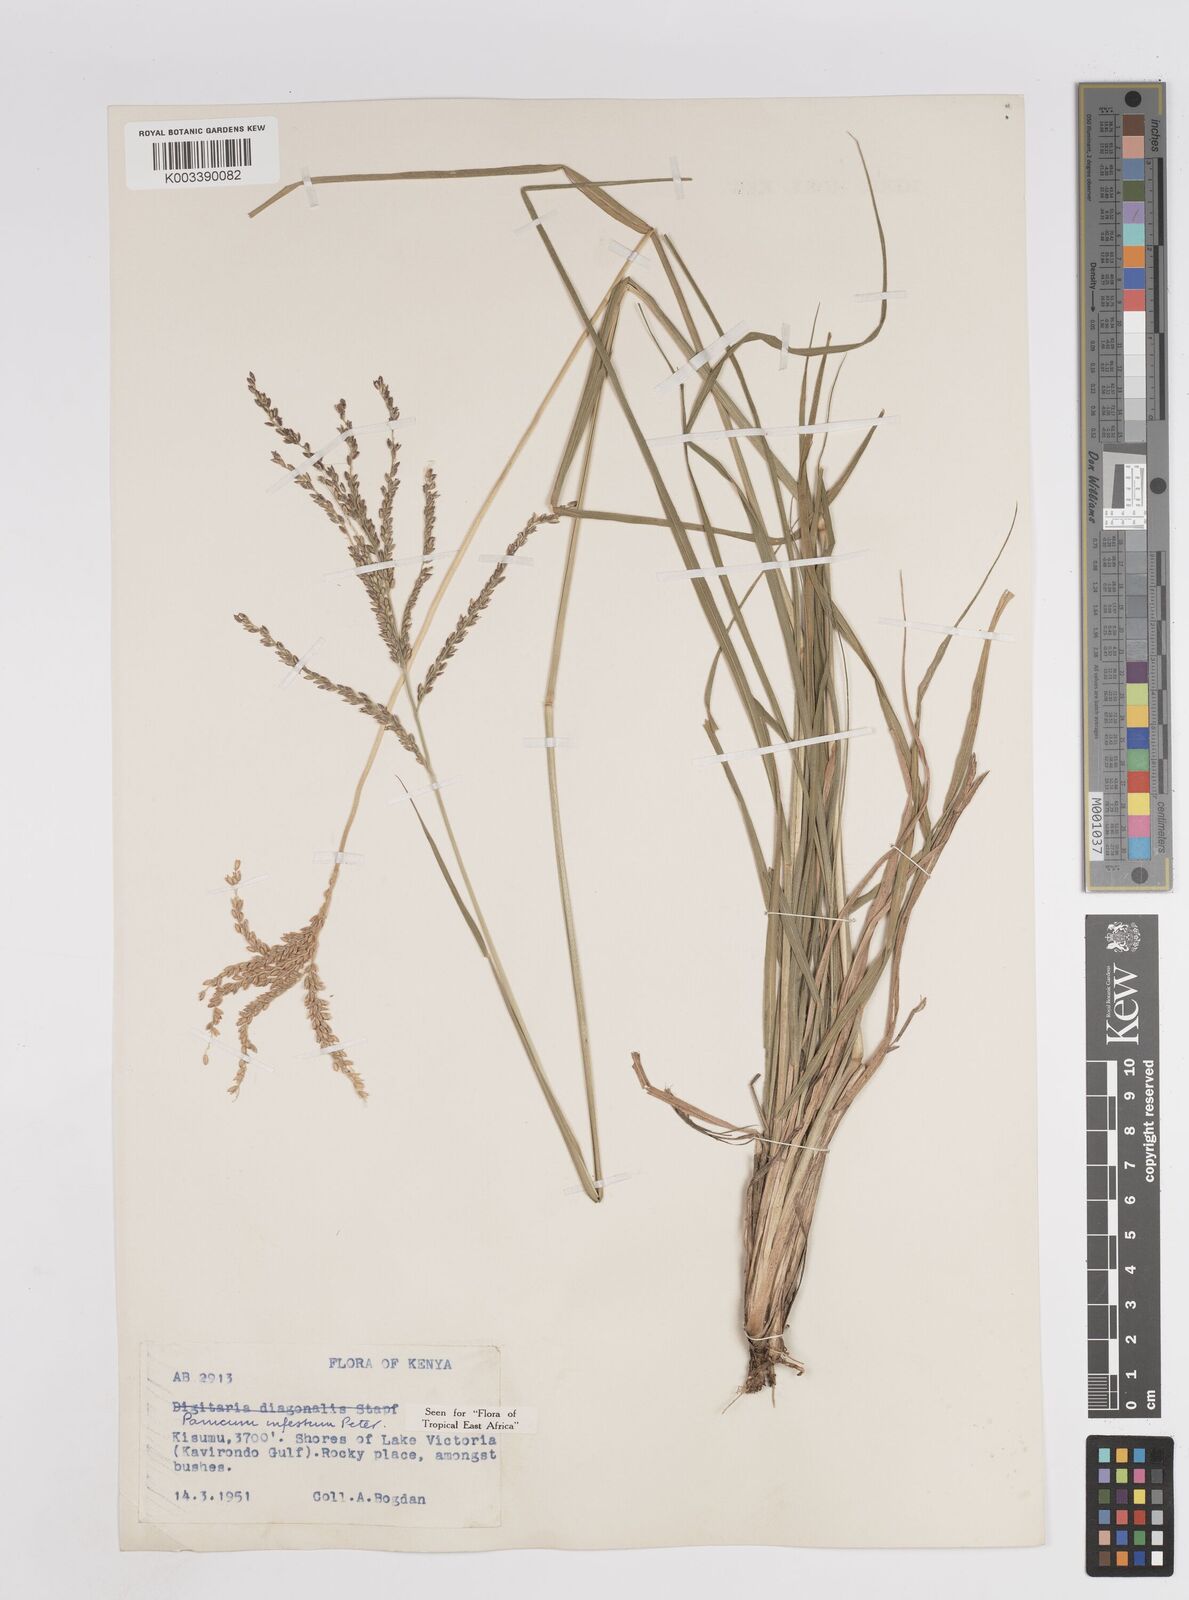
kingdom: Plantae
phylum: Tracheophyta
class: Liliopsida
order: Poales
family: Poaceae
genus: Megathyrsus
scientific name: Megathyrsus infestus
